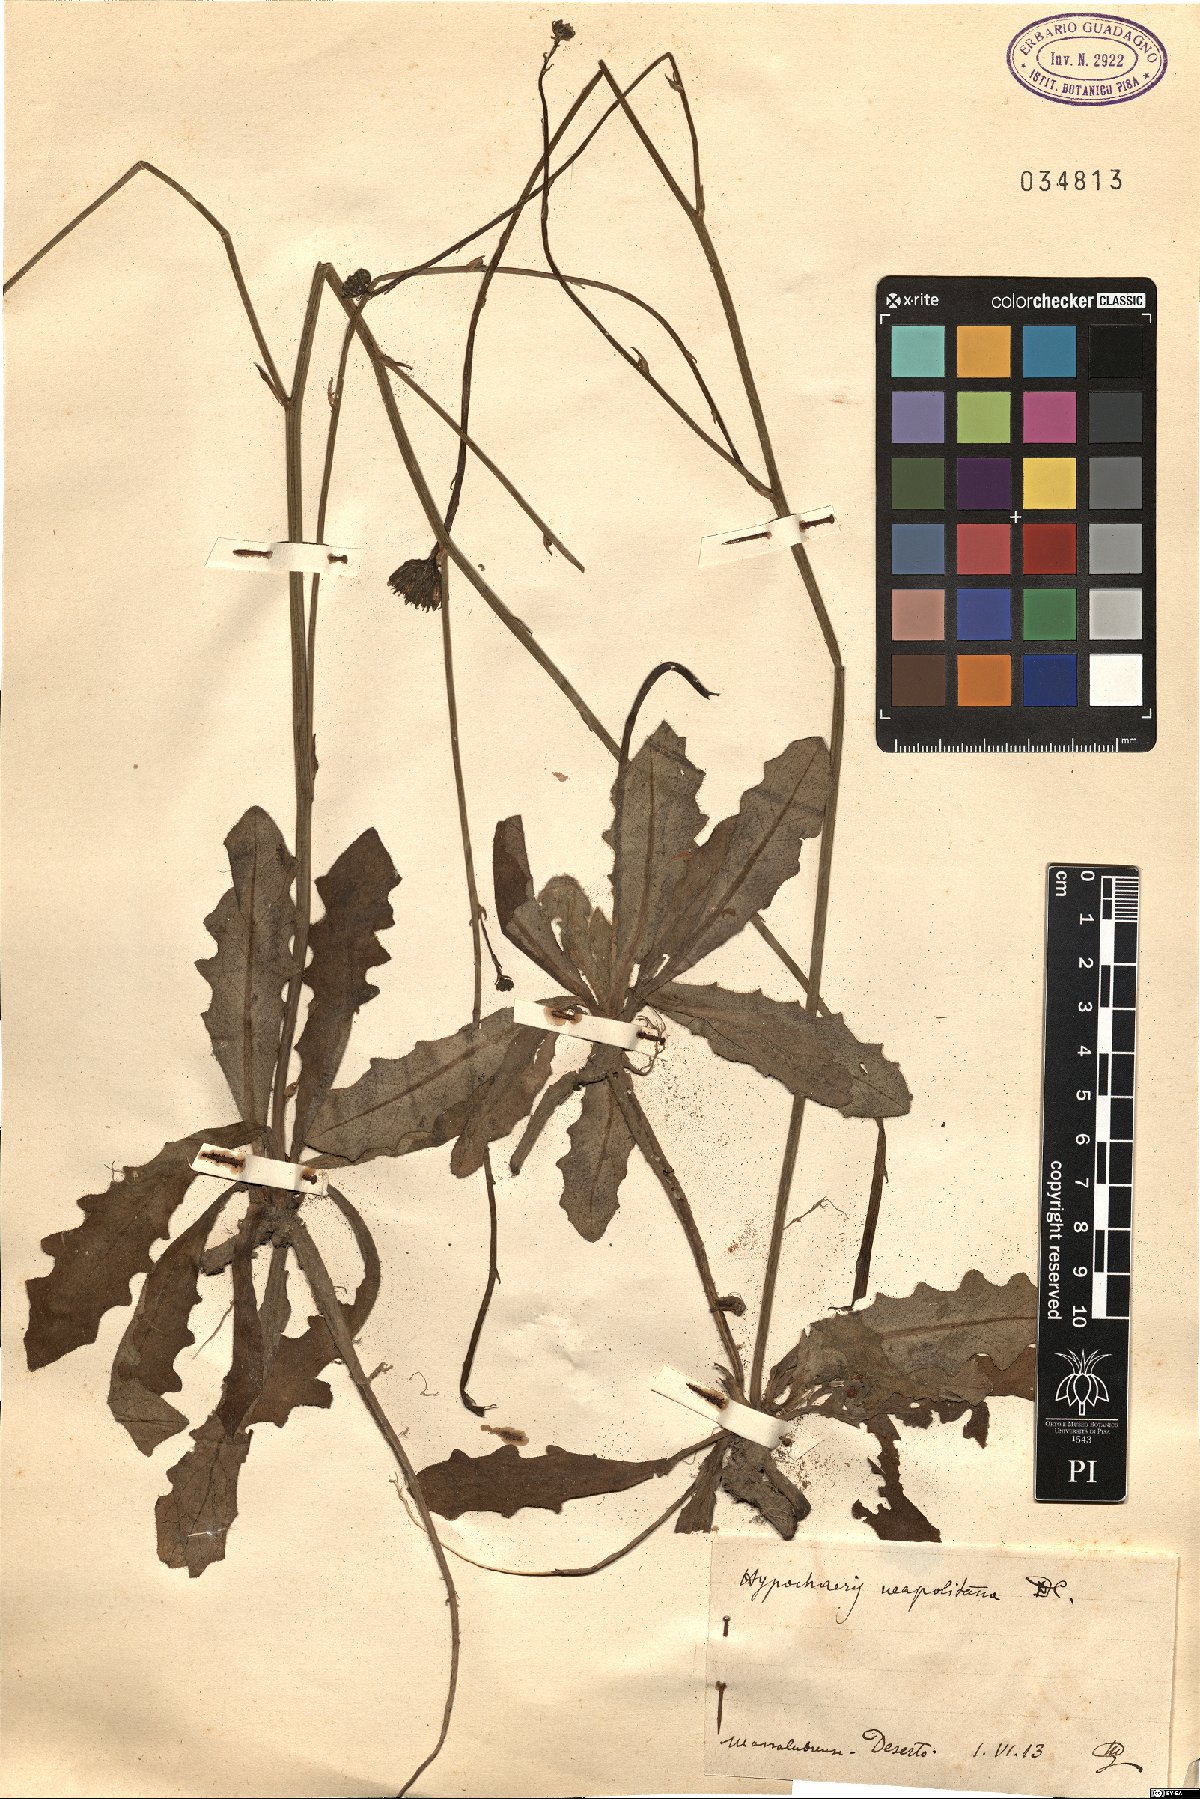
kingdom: Plantae
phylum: Tracheophyta
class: Magnoliopsida
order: Asterales
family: Asteraceae
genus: Hypochaeris
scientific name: Hypochaeris radicata
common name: Flatweed
